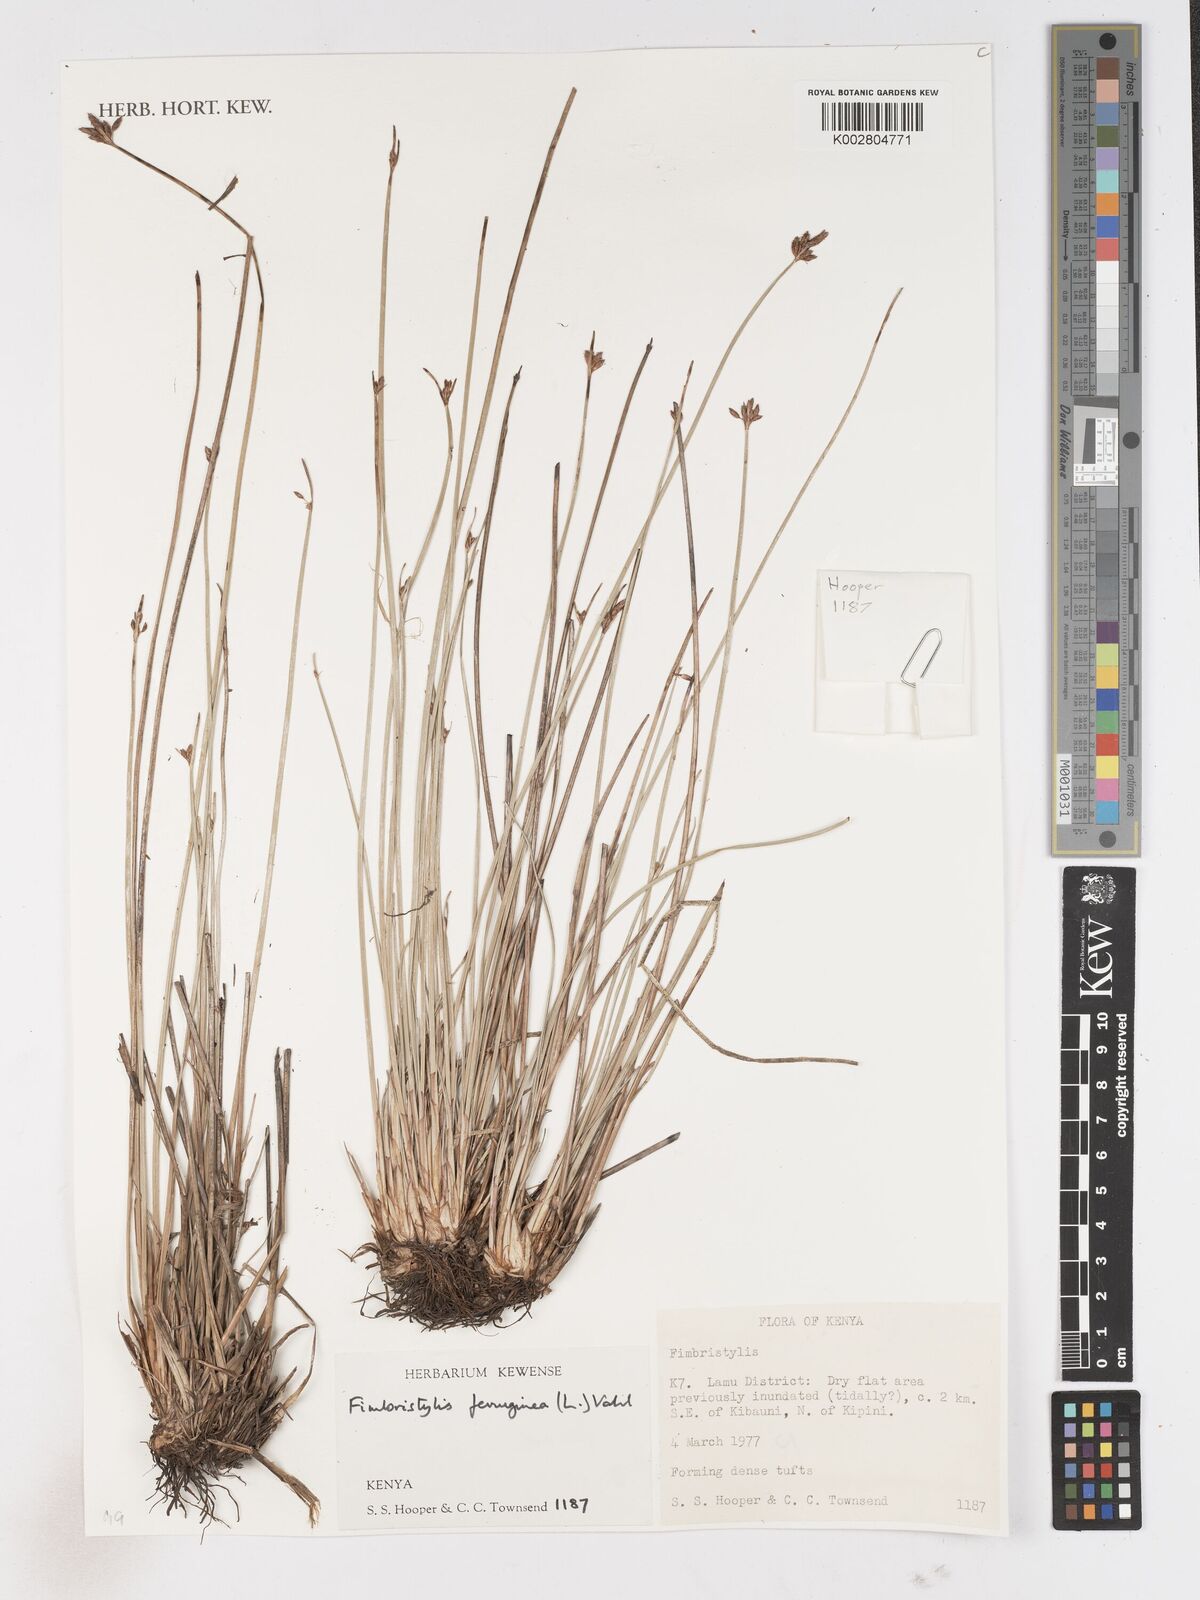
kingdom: Plantae
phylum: Tracheophyta
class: Liliopsida
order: Poales
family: Cyperaceae
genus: Fimbristylis
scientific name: Fimbristylis ferruginea
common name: West indian fimbry
